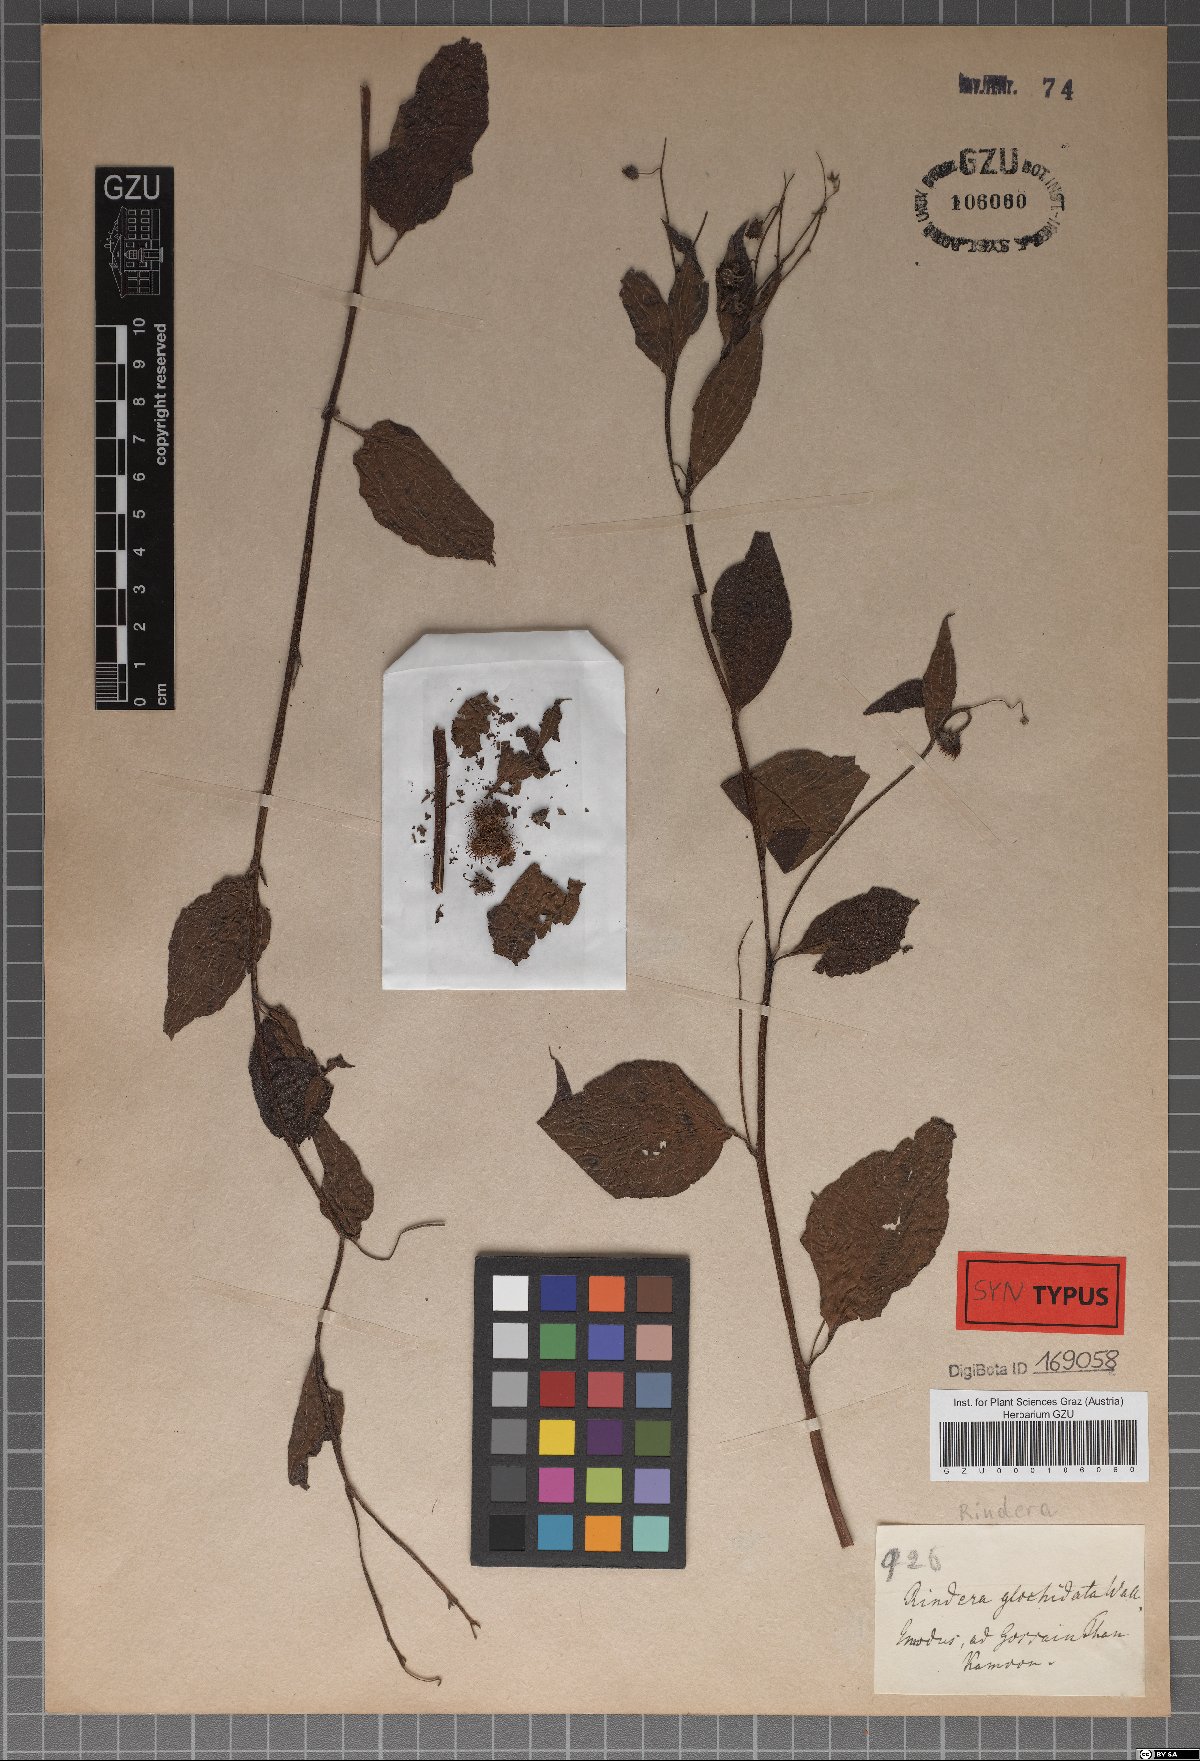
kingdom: Plantae
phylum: Tracheophyta
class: Magnoliopsida
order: Boraginales
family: Boraginaceae
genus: Hackelia
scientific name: Hackelia uncinata
